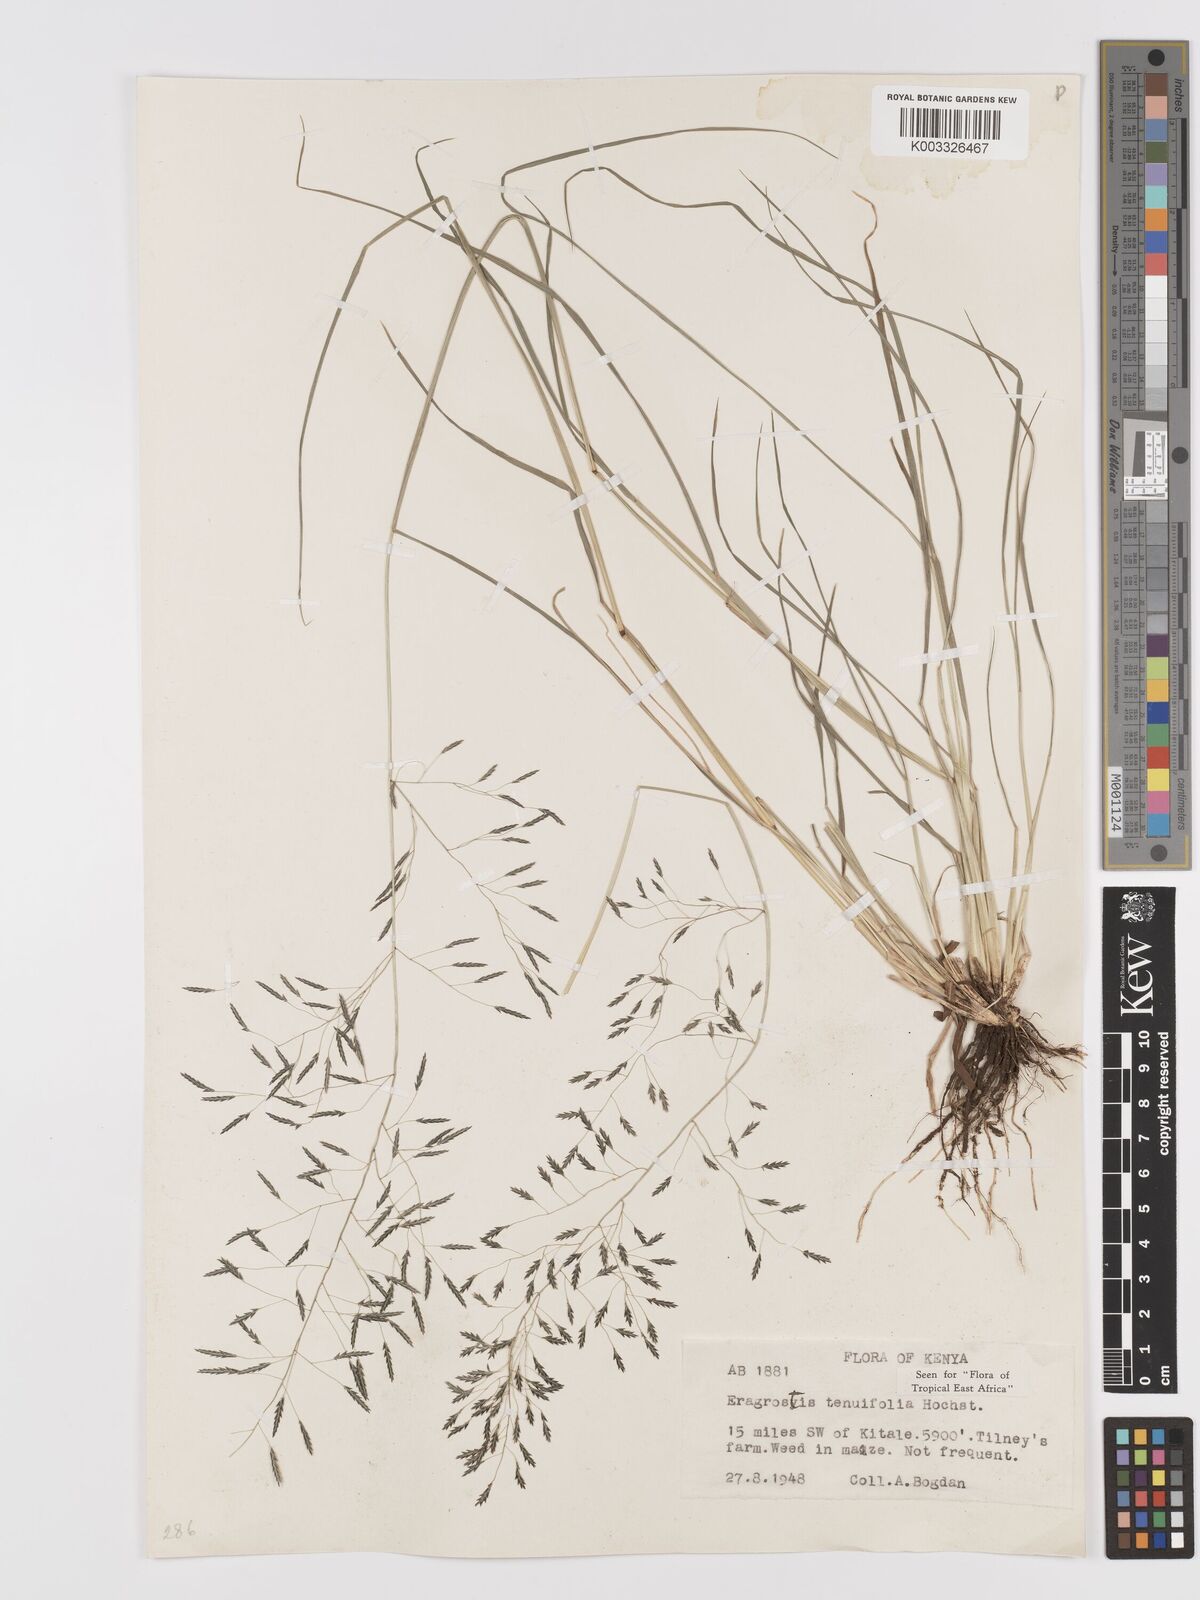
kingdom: Plantae
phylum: Tracheophyta
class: Liliopsida
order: Poales
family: Poaceae
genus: Eragrostis
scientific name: Eragrostis tenuifolia
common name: Elastic grass
